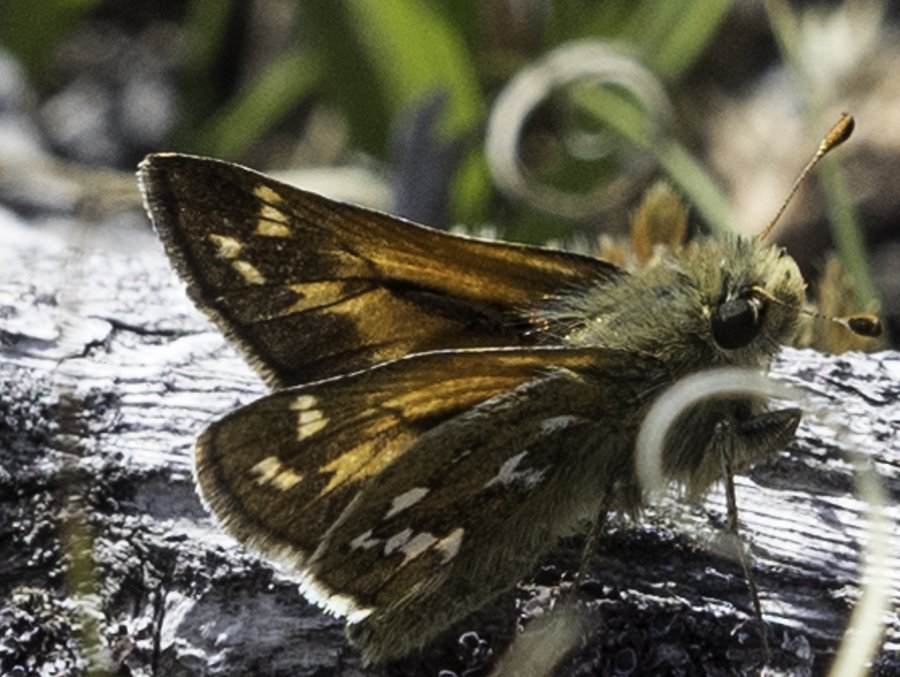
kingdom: Animalia
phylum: Arthropoda
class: Insecta
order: Lepidoptera
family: Hesperiidae
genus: Hesperia
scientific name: Hesperia comma
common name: Common Branded Skipper
